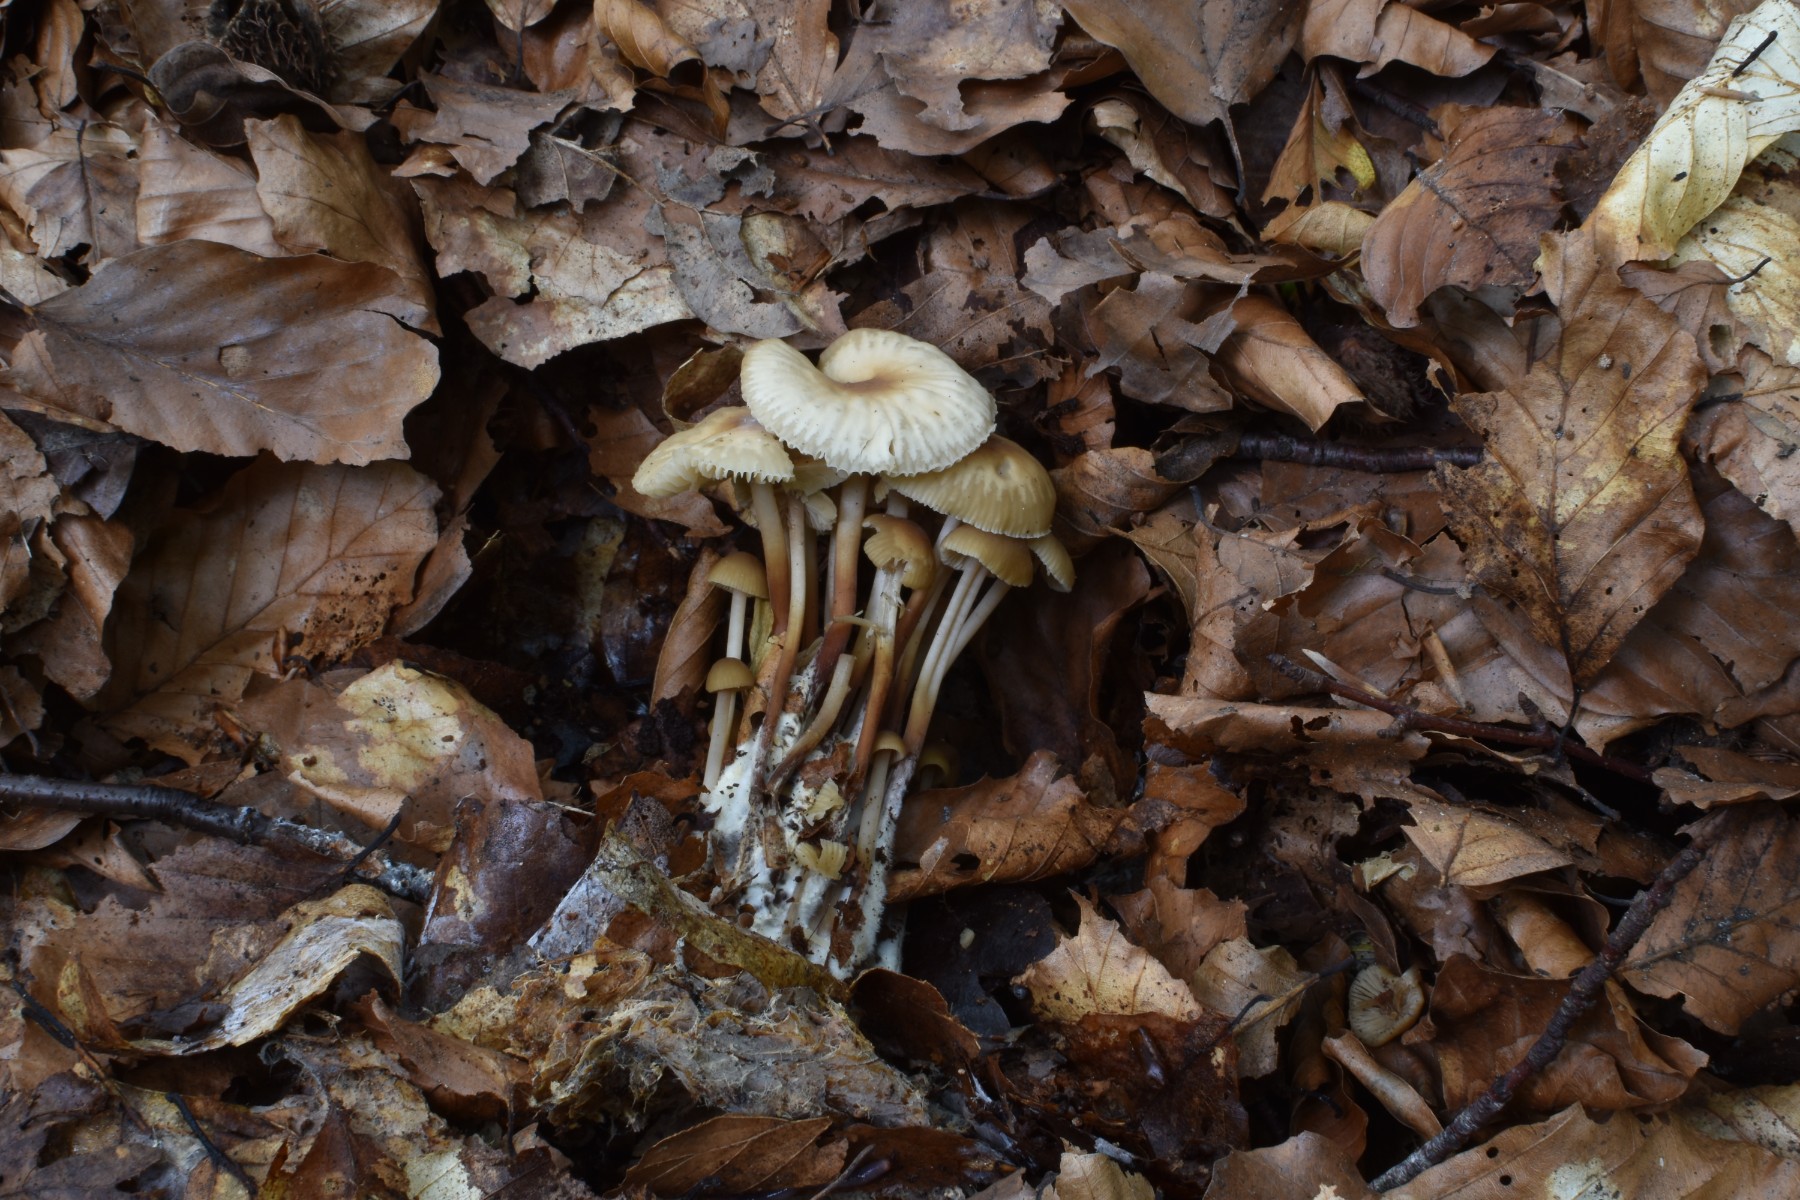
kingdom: Fungi
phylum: Basidiomycota
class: Agaricomycetes
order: Agaricales
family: Omphalotaceae
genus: Collybiopsis
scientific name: Collybiopsis confluens
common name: knippe-fladhat
